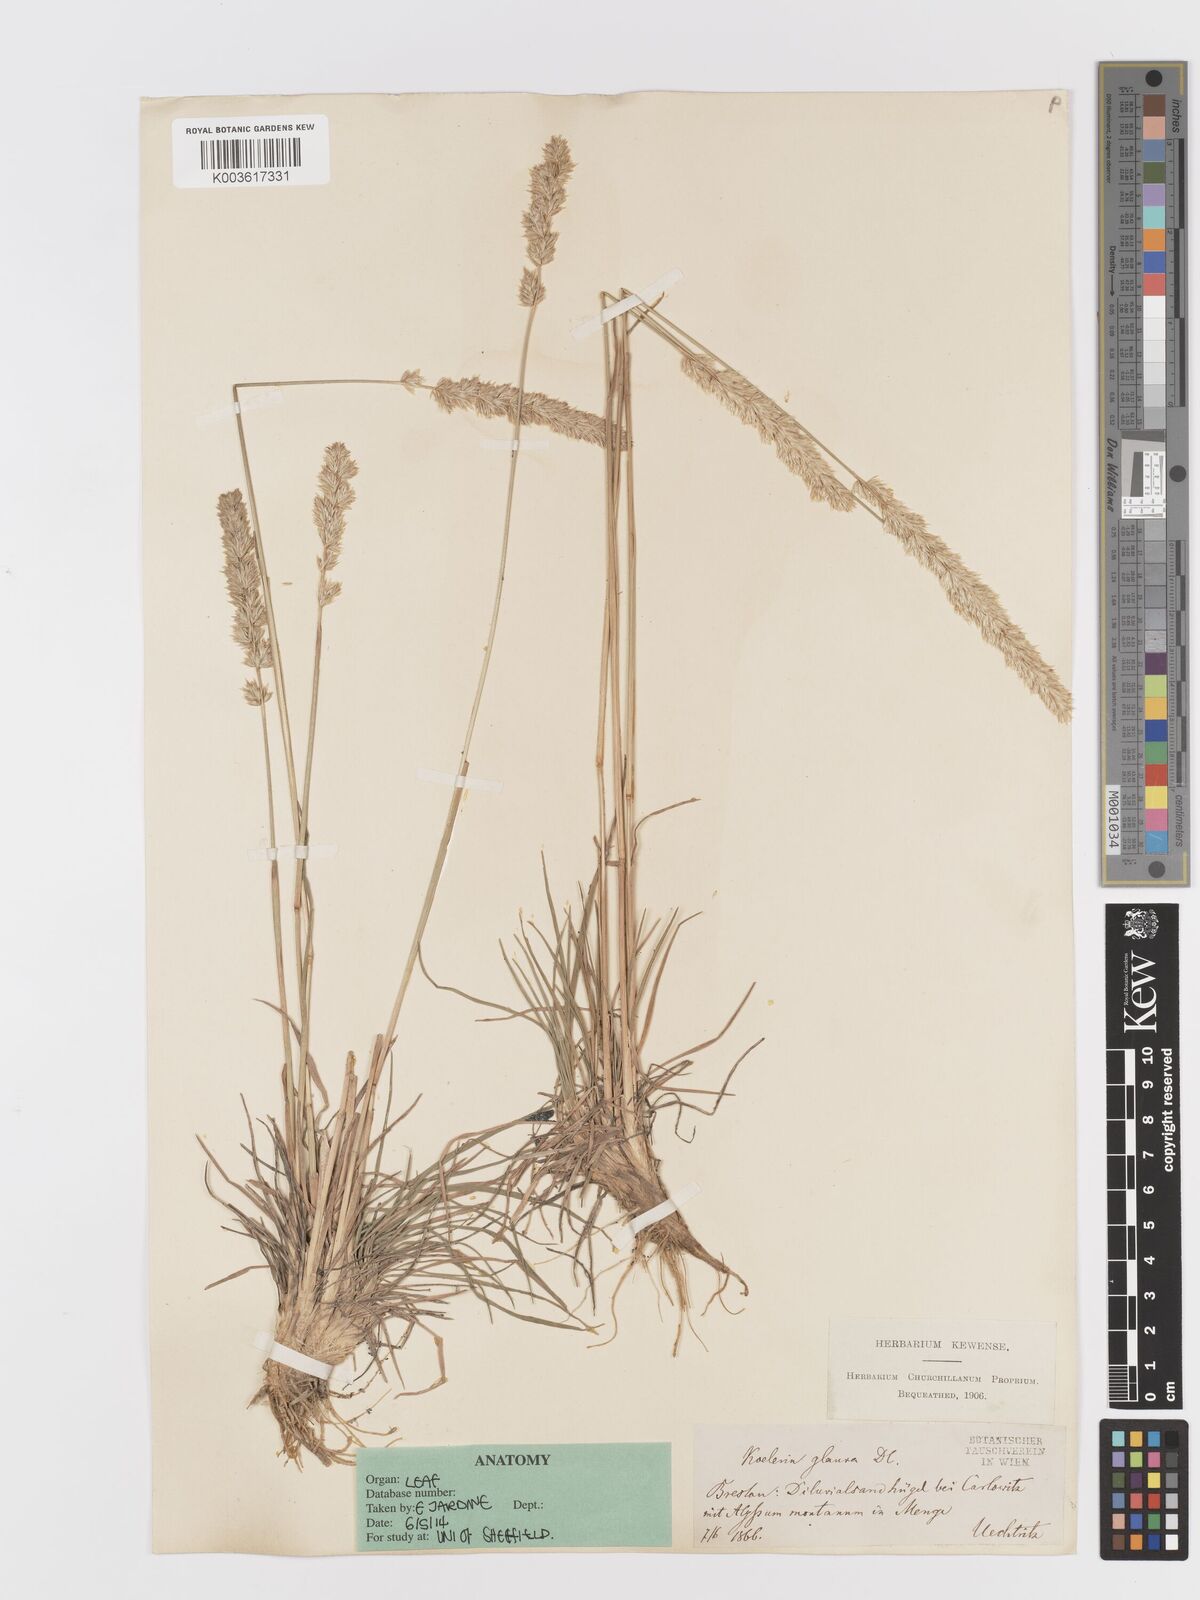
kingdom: Plantae
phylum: Tracheophyta
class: Liliopsida
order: Poales
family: Poaceae
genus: Koeleria
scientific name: Koeleria glauca
